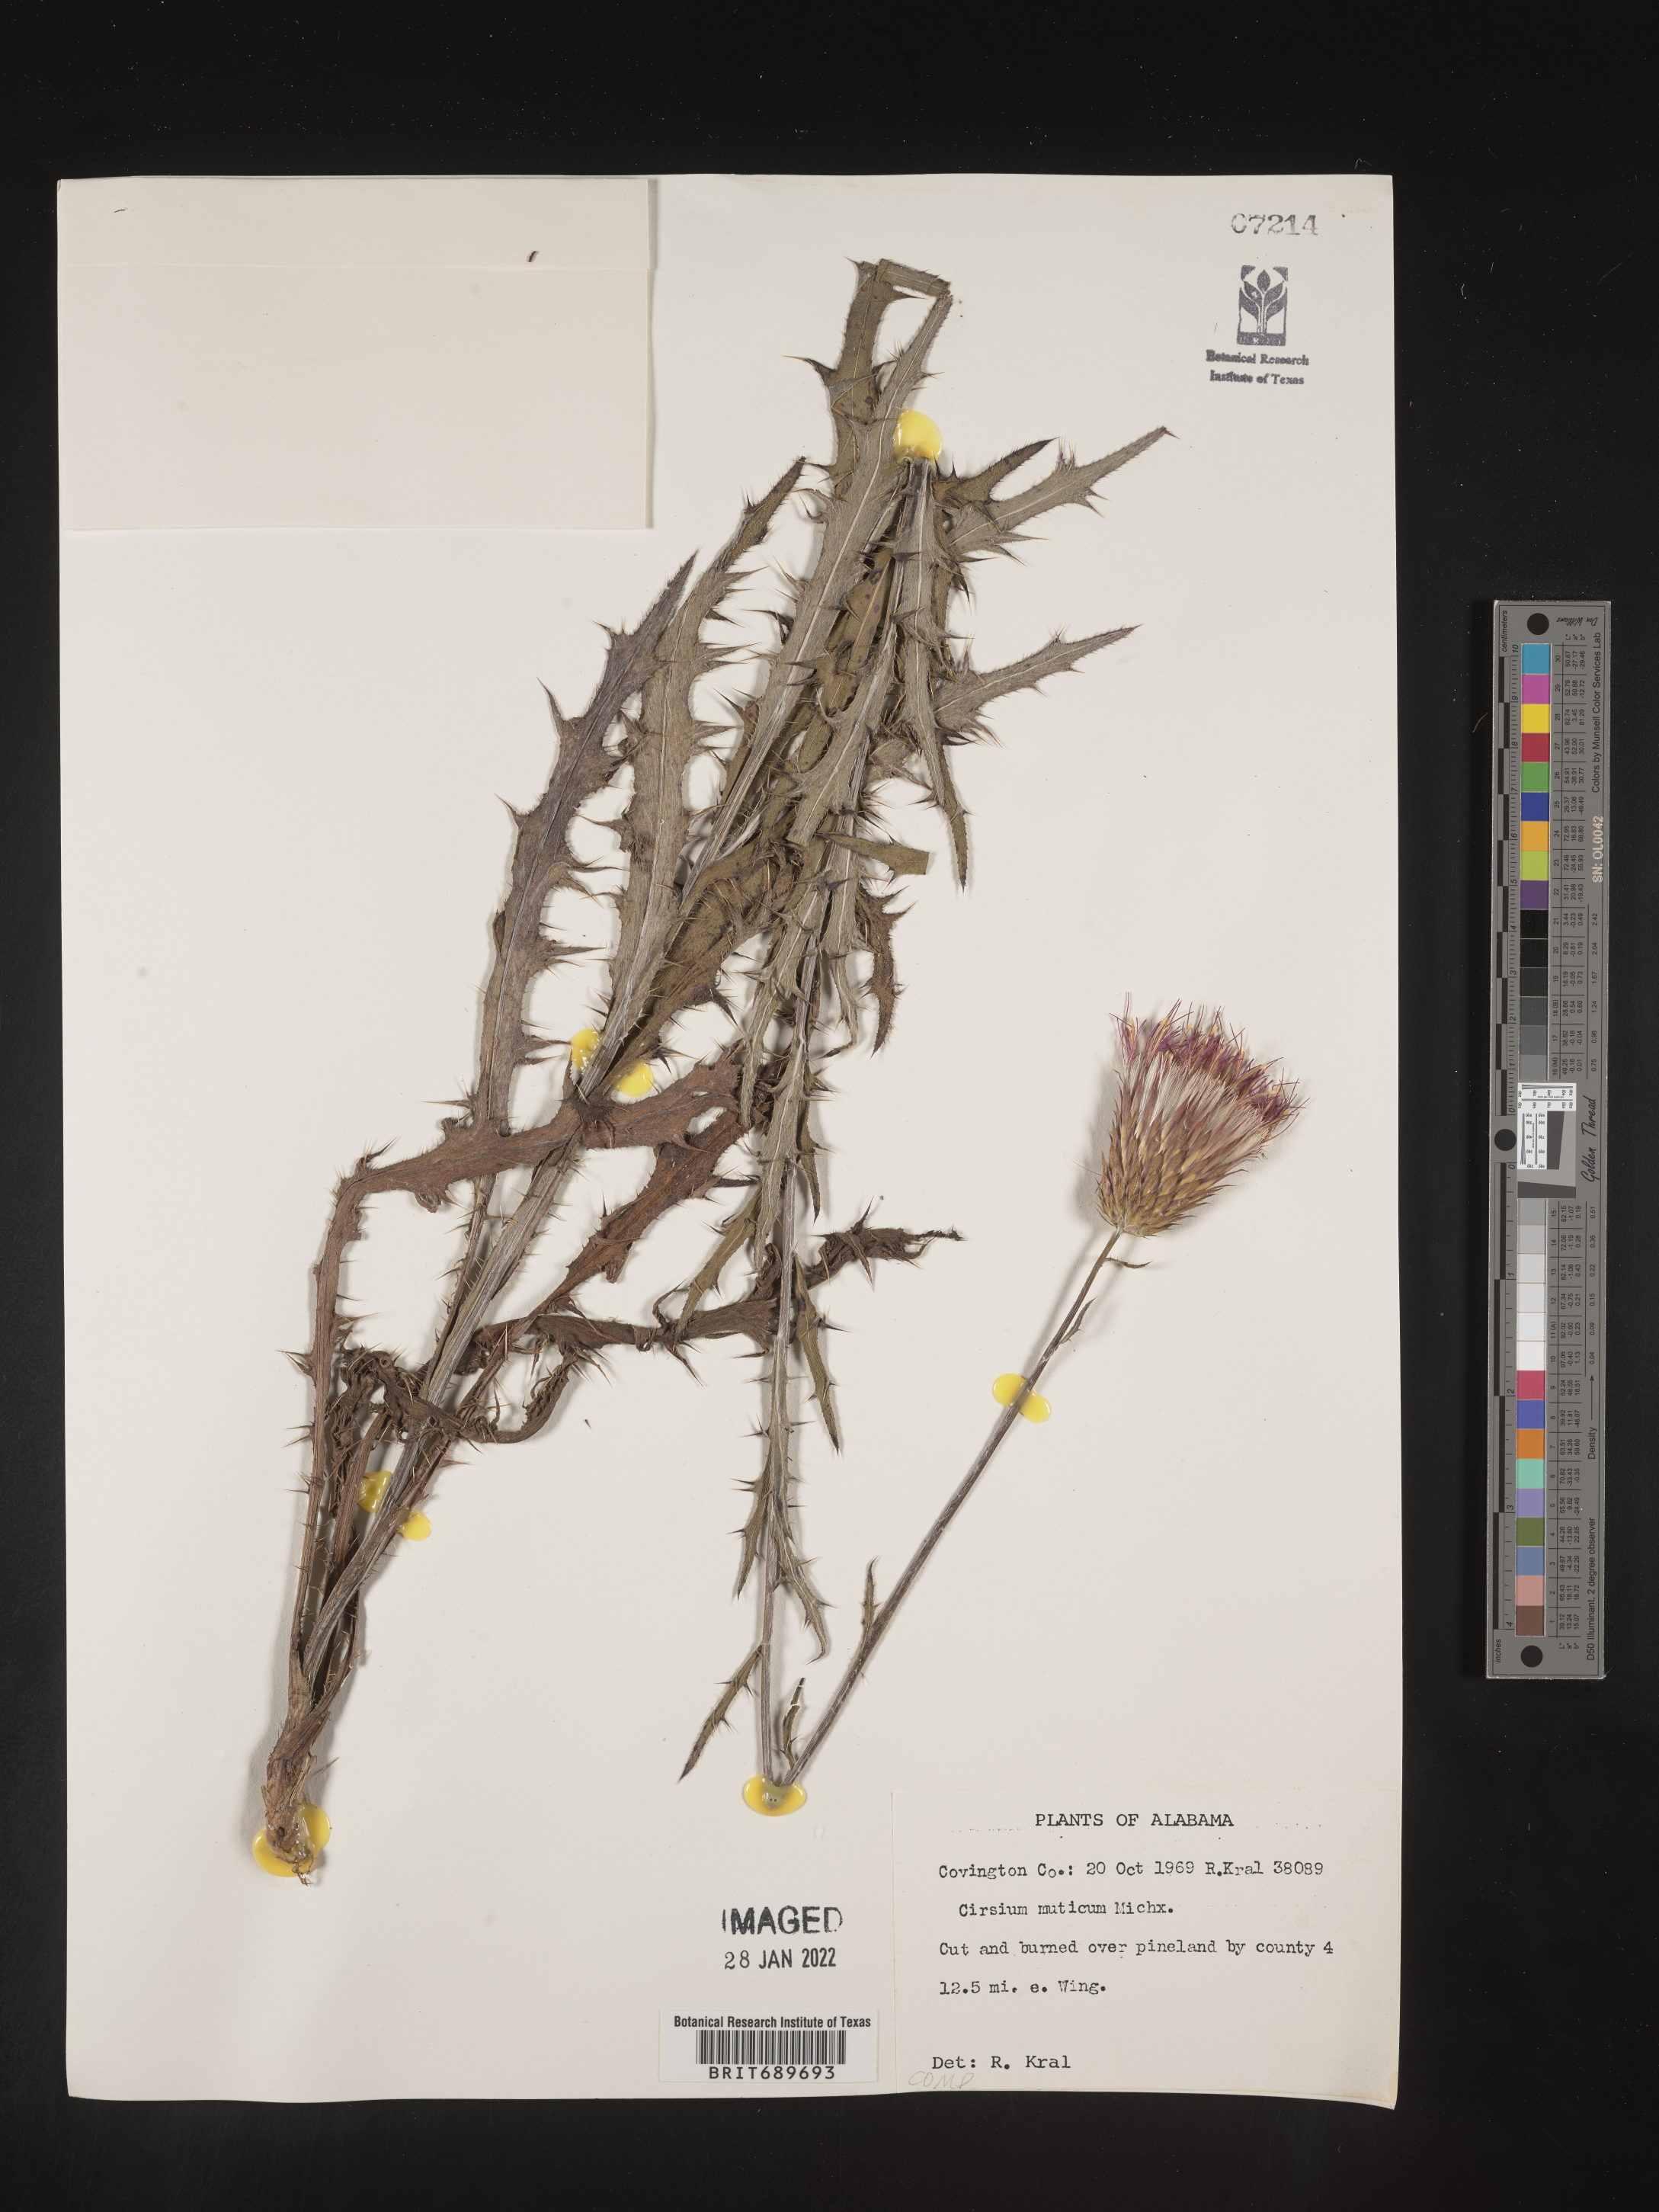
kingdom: Plantae
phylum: Tracheophyta
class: Magnoliopsida
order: Asterales
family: Asteraceae
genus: Cirsium
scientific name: Cirsium muticum
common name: Dunce-nettle
